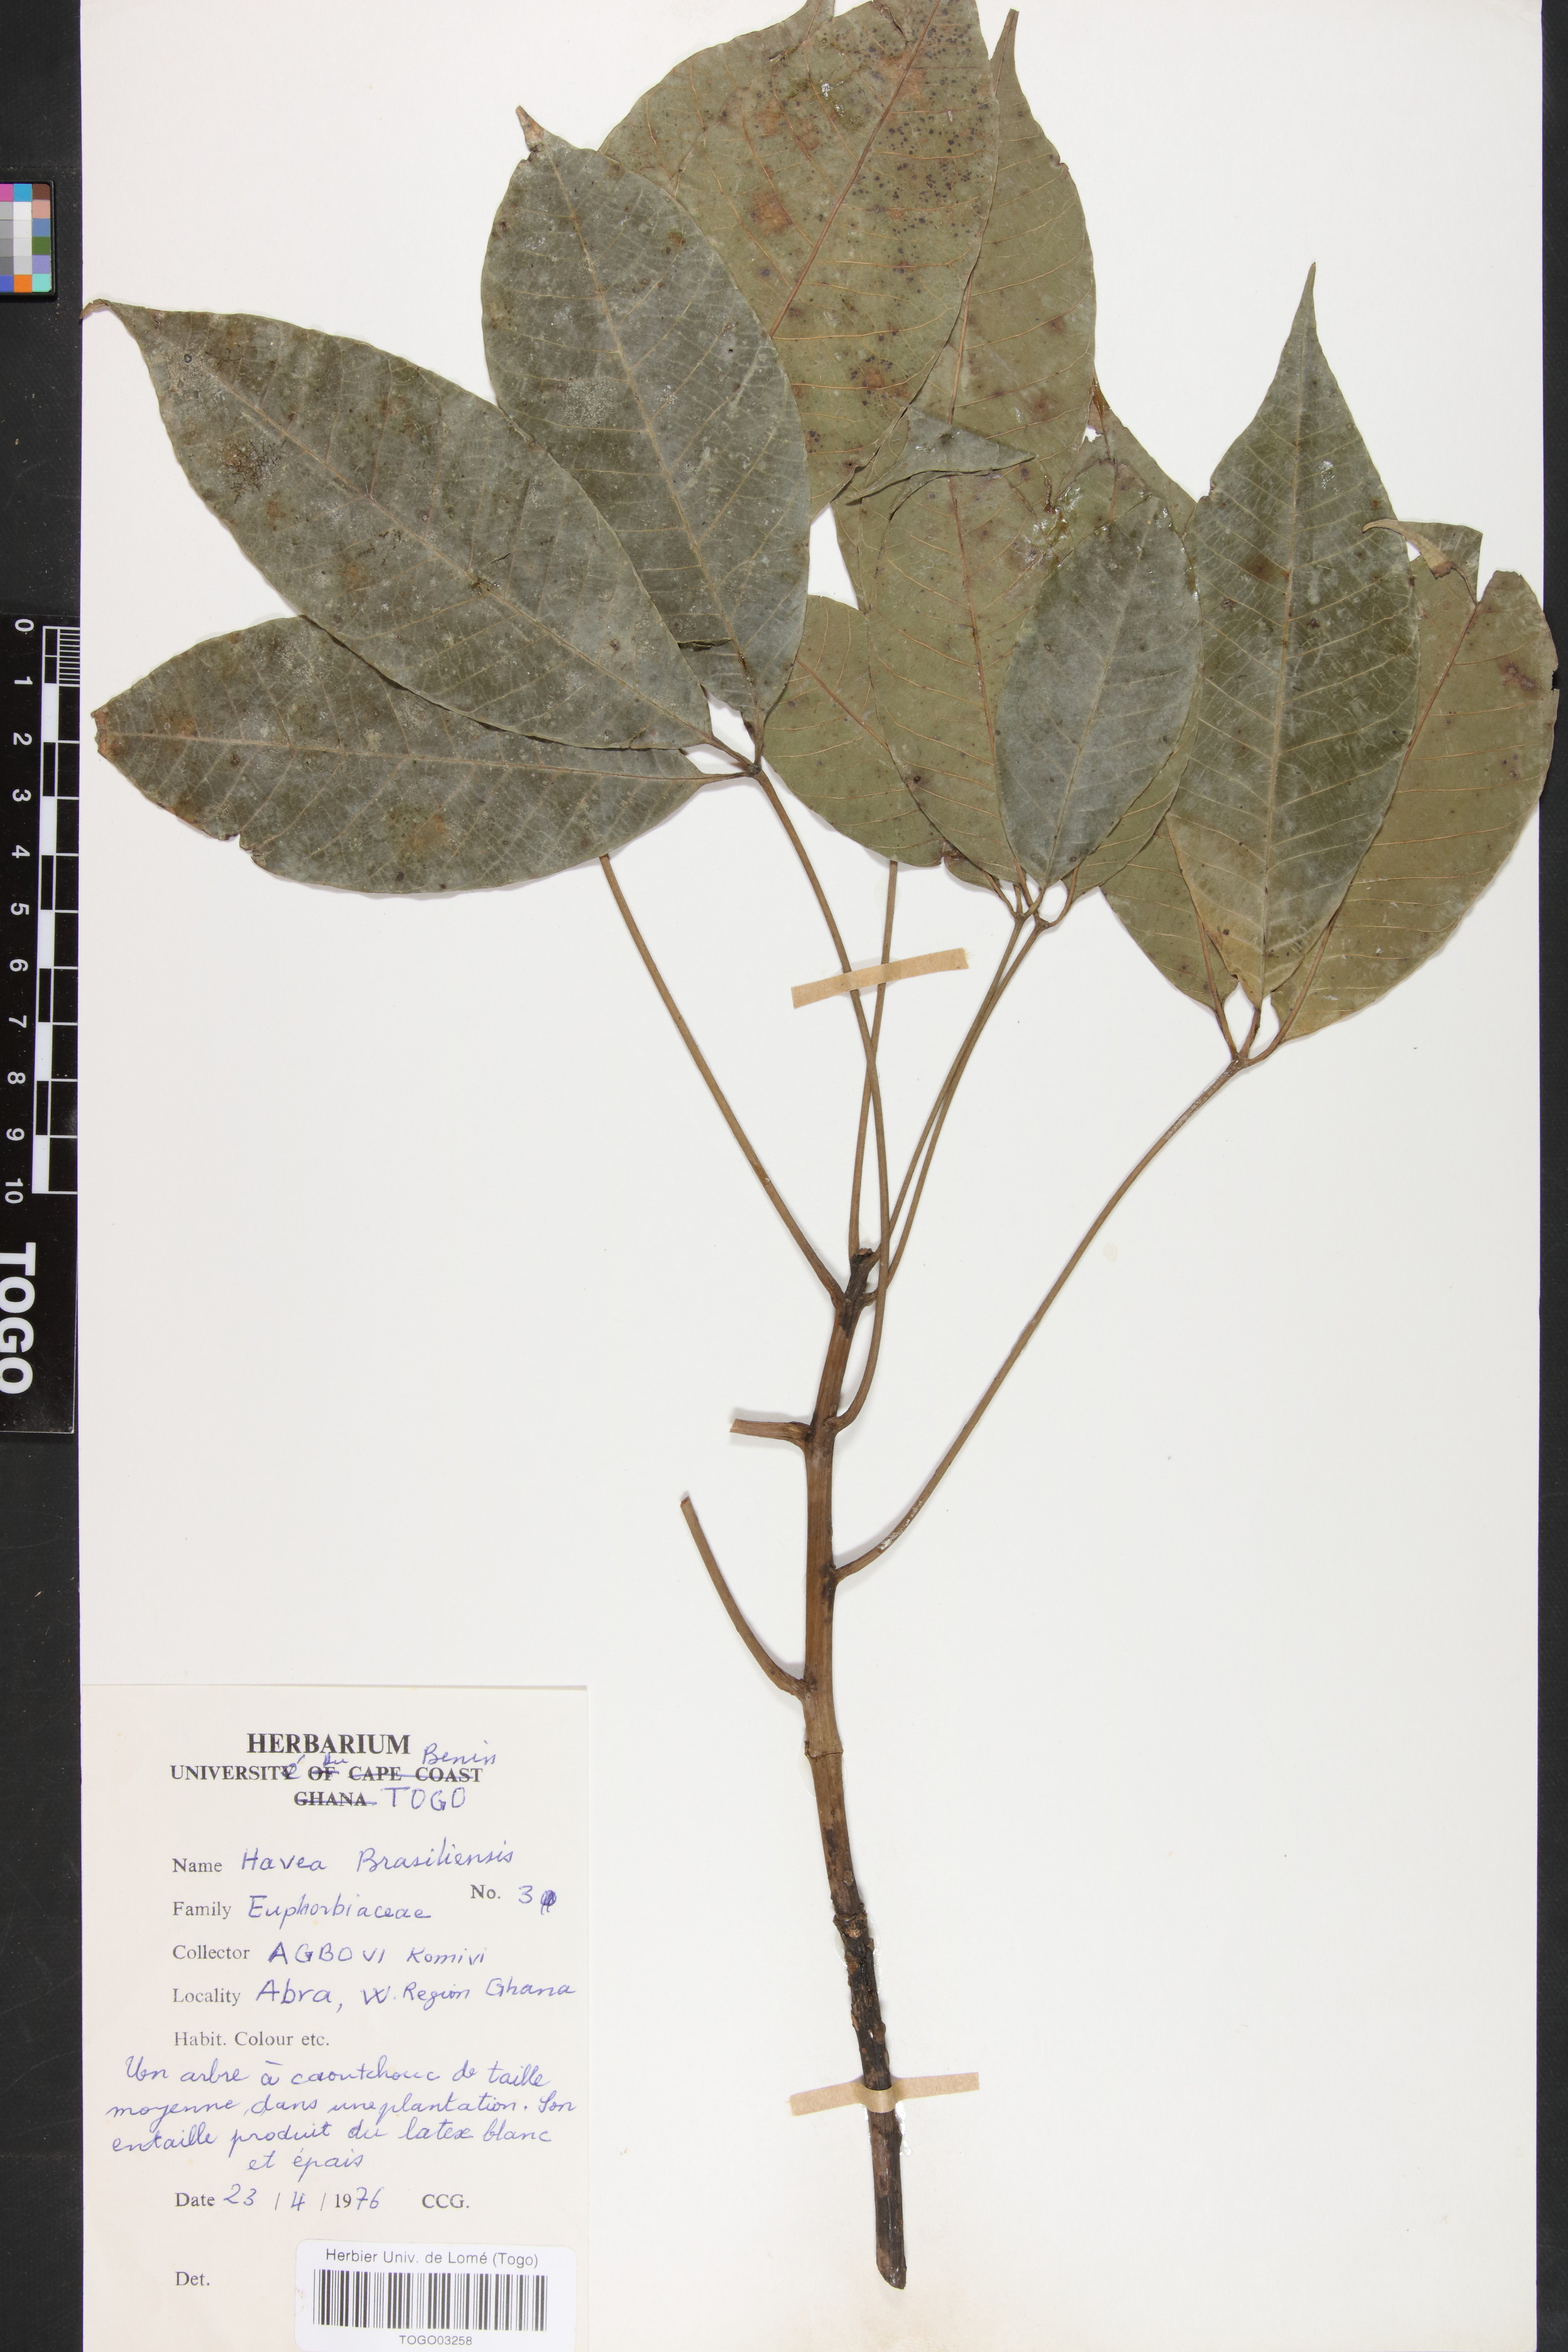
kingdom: Plantae
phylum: Tracheophyta
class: Magnoliopsida
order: Malpighiales
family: Euphorbiaceae
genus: Hevea
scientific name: Hevea brasiliensis
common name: Natural rubber
